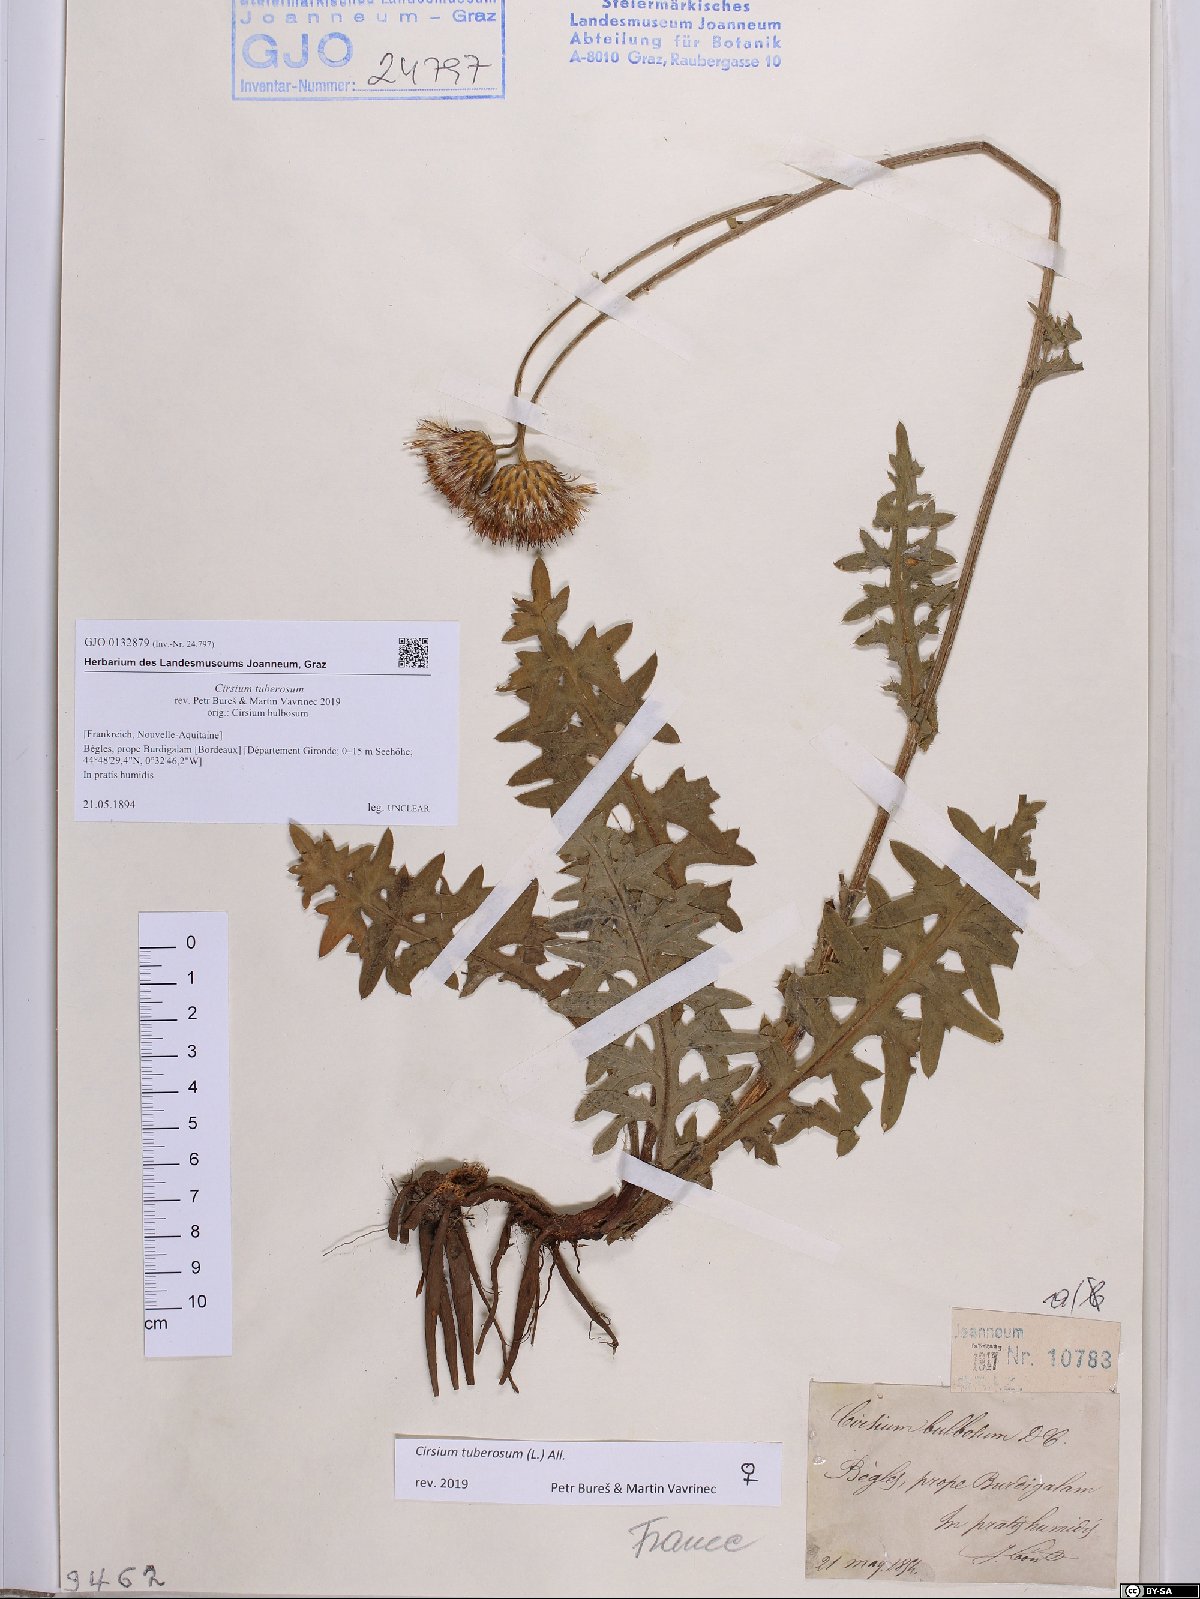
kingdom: Plantae
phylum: Tracheophyta
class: Magnoliopsida
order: Asterales
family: Asteraceae
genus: Cirsium
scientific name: Cirsium tuberosum
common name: Tuberous thistle
